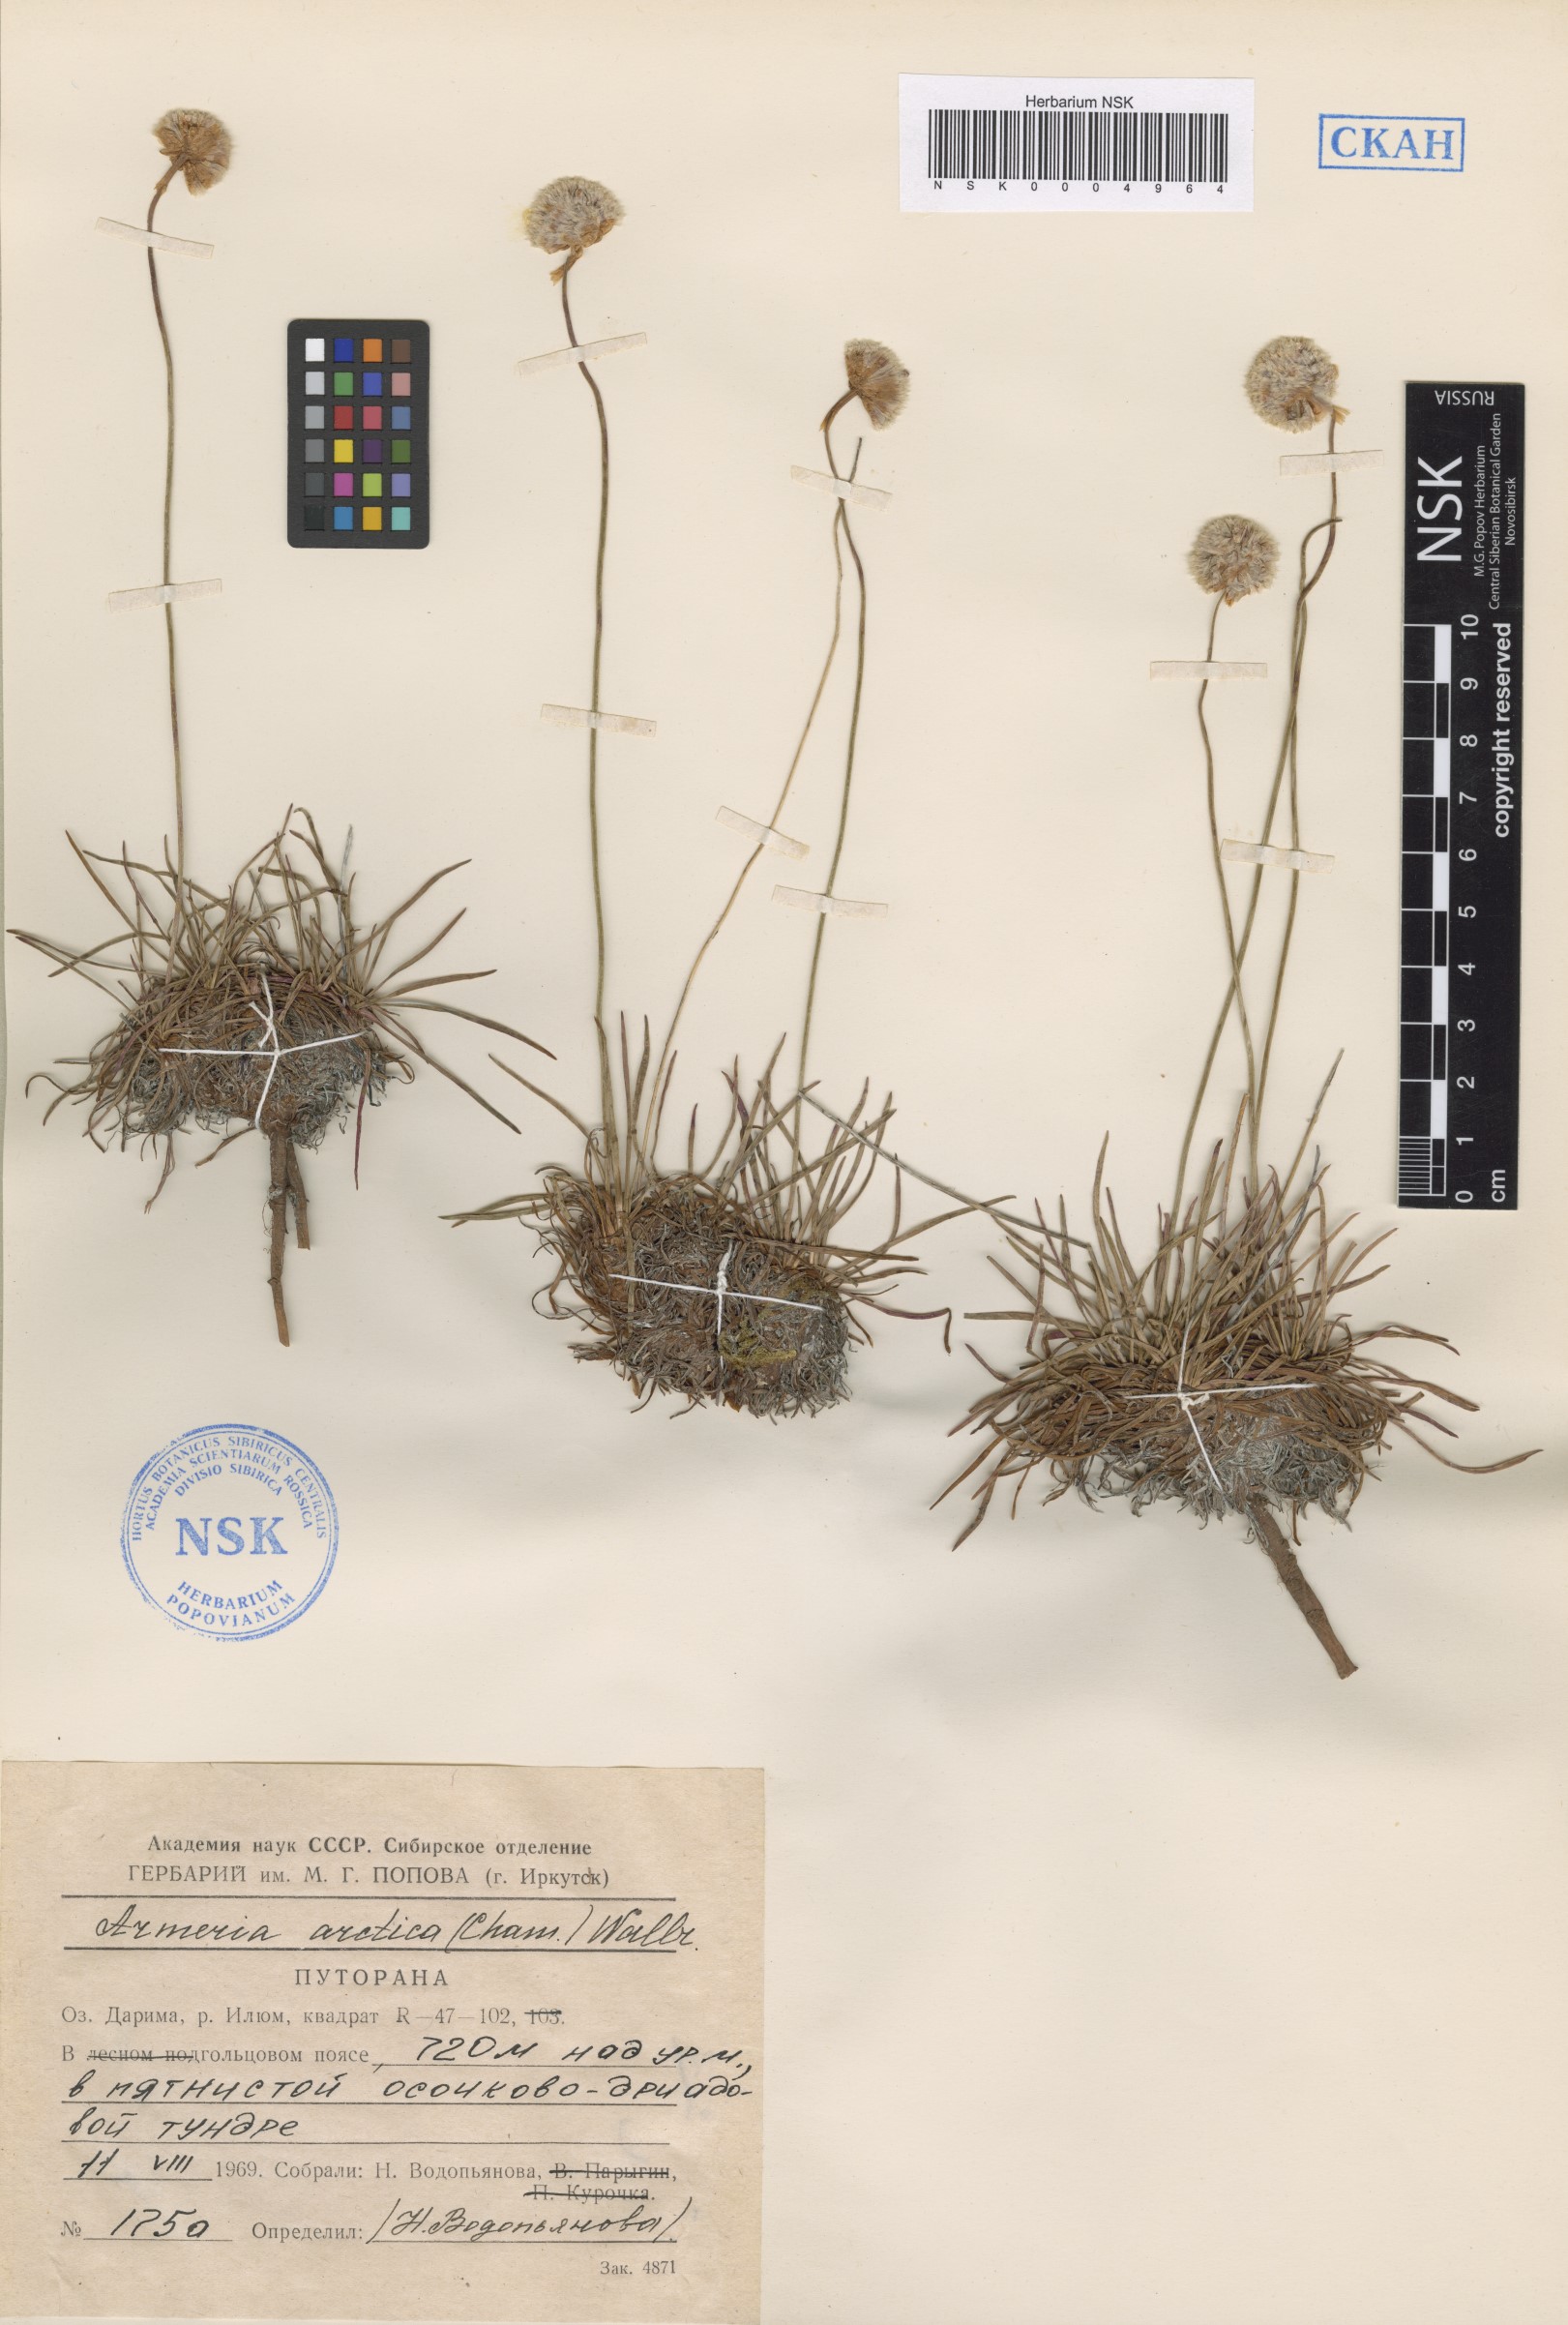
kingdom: Plantae
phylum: Tracheophyta
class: Magnoliopsida
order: Caryophyllales
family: Plumbaginaceae
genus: Armeria
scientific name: Armeria maritima
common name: Thrift
